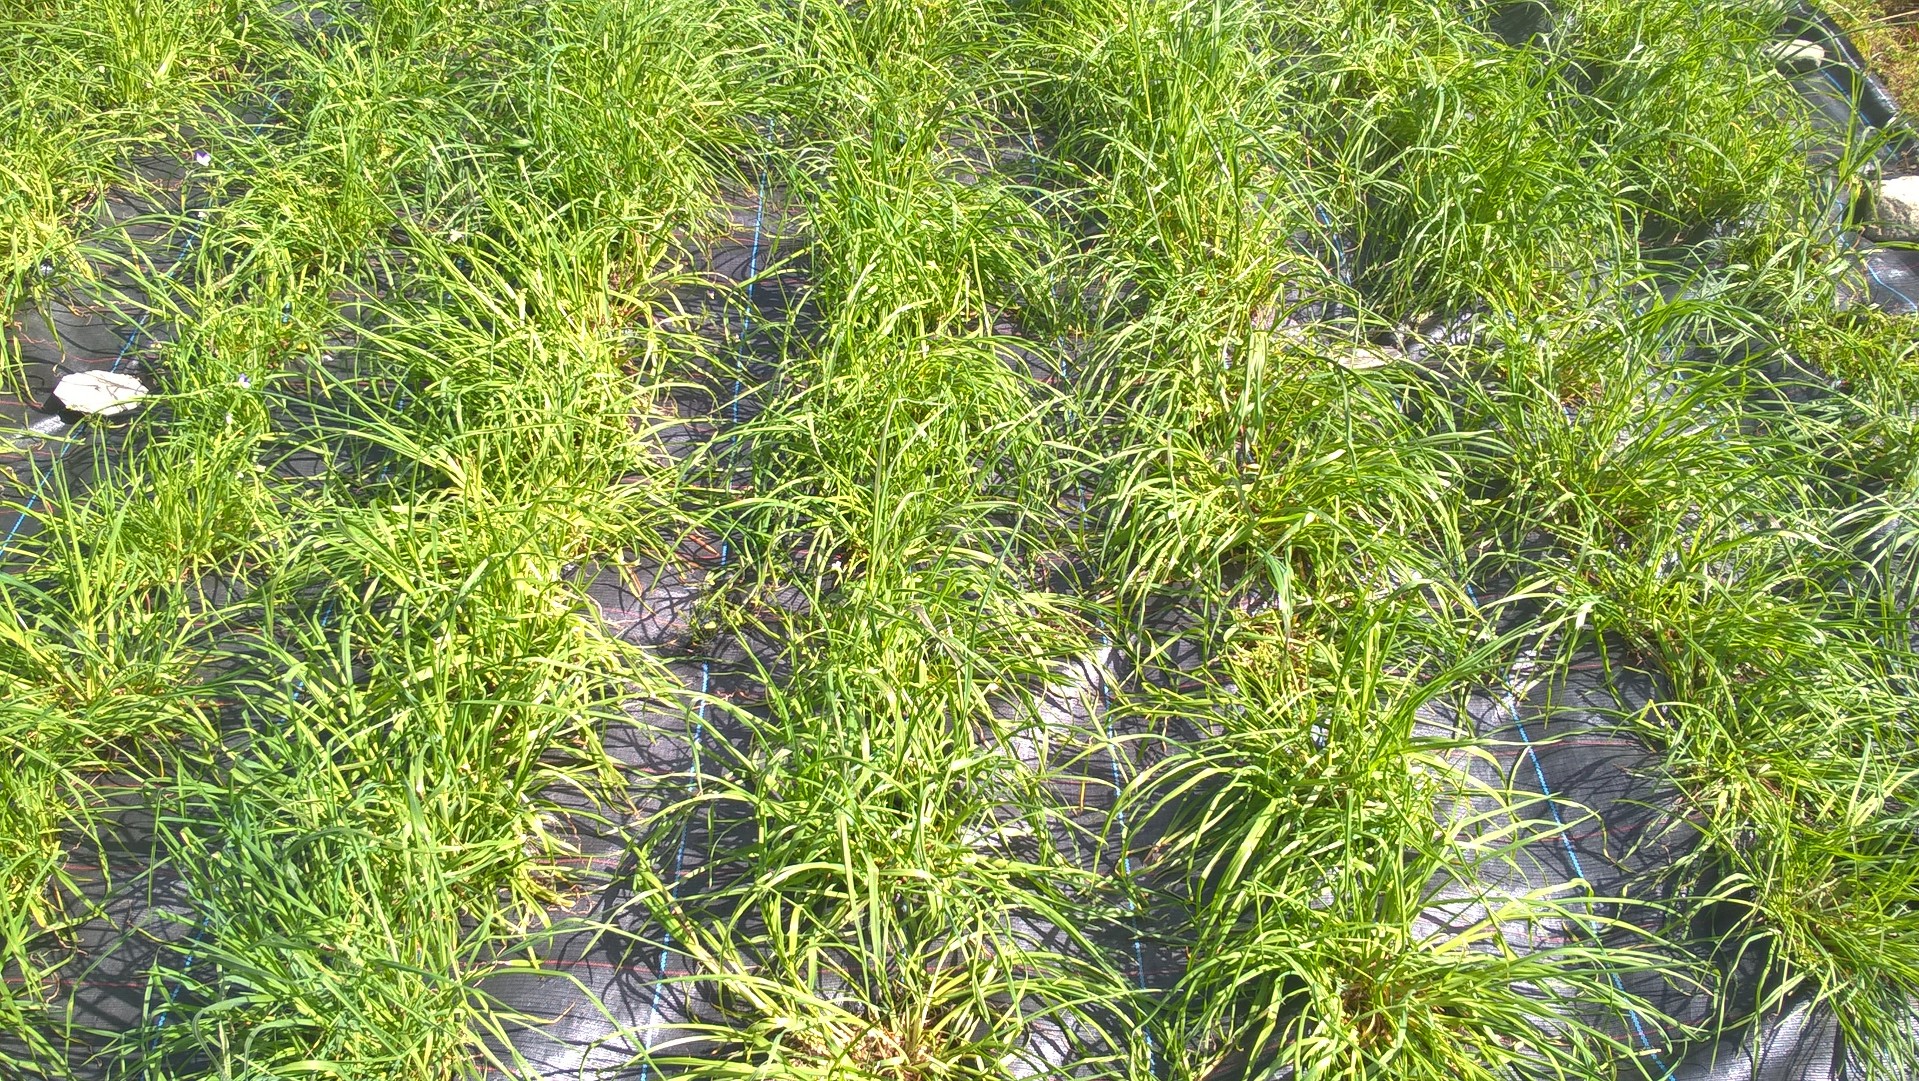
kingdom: Plantae
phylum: Tracheophyta
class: Liliopsida
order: Poales
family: Poaceae
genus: Dactylis
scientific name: Dactylis glomerata
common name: Orchardgrass
